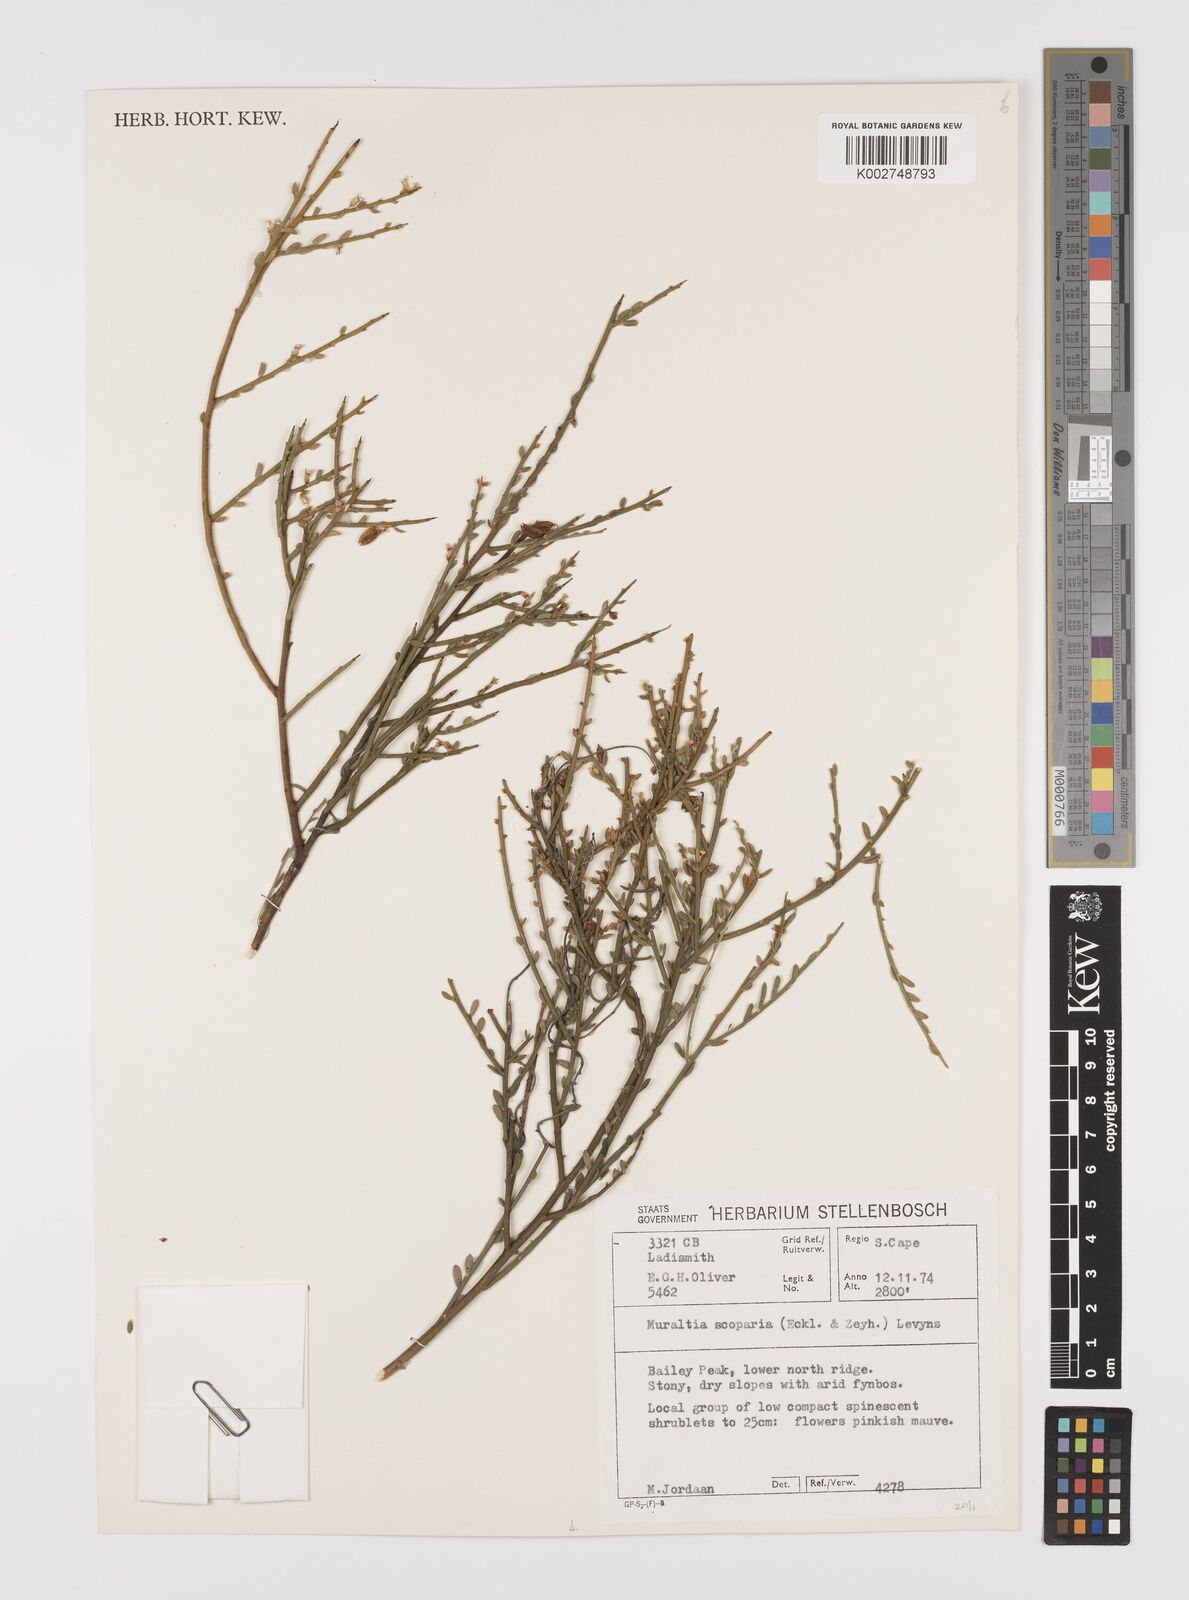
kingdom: Plantae
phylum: Tracheophyta
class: Magnoliopsida
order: Fabales
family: Polygalaceae
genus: Muraltia
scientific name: Muraltia scoparia
